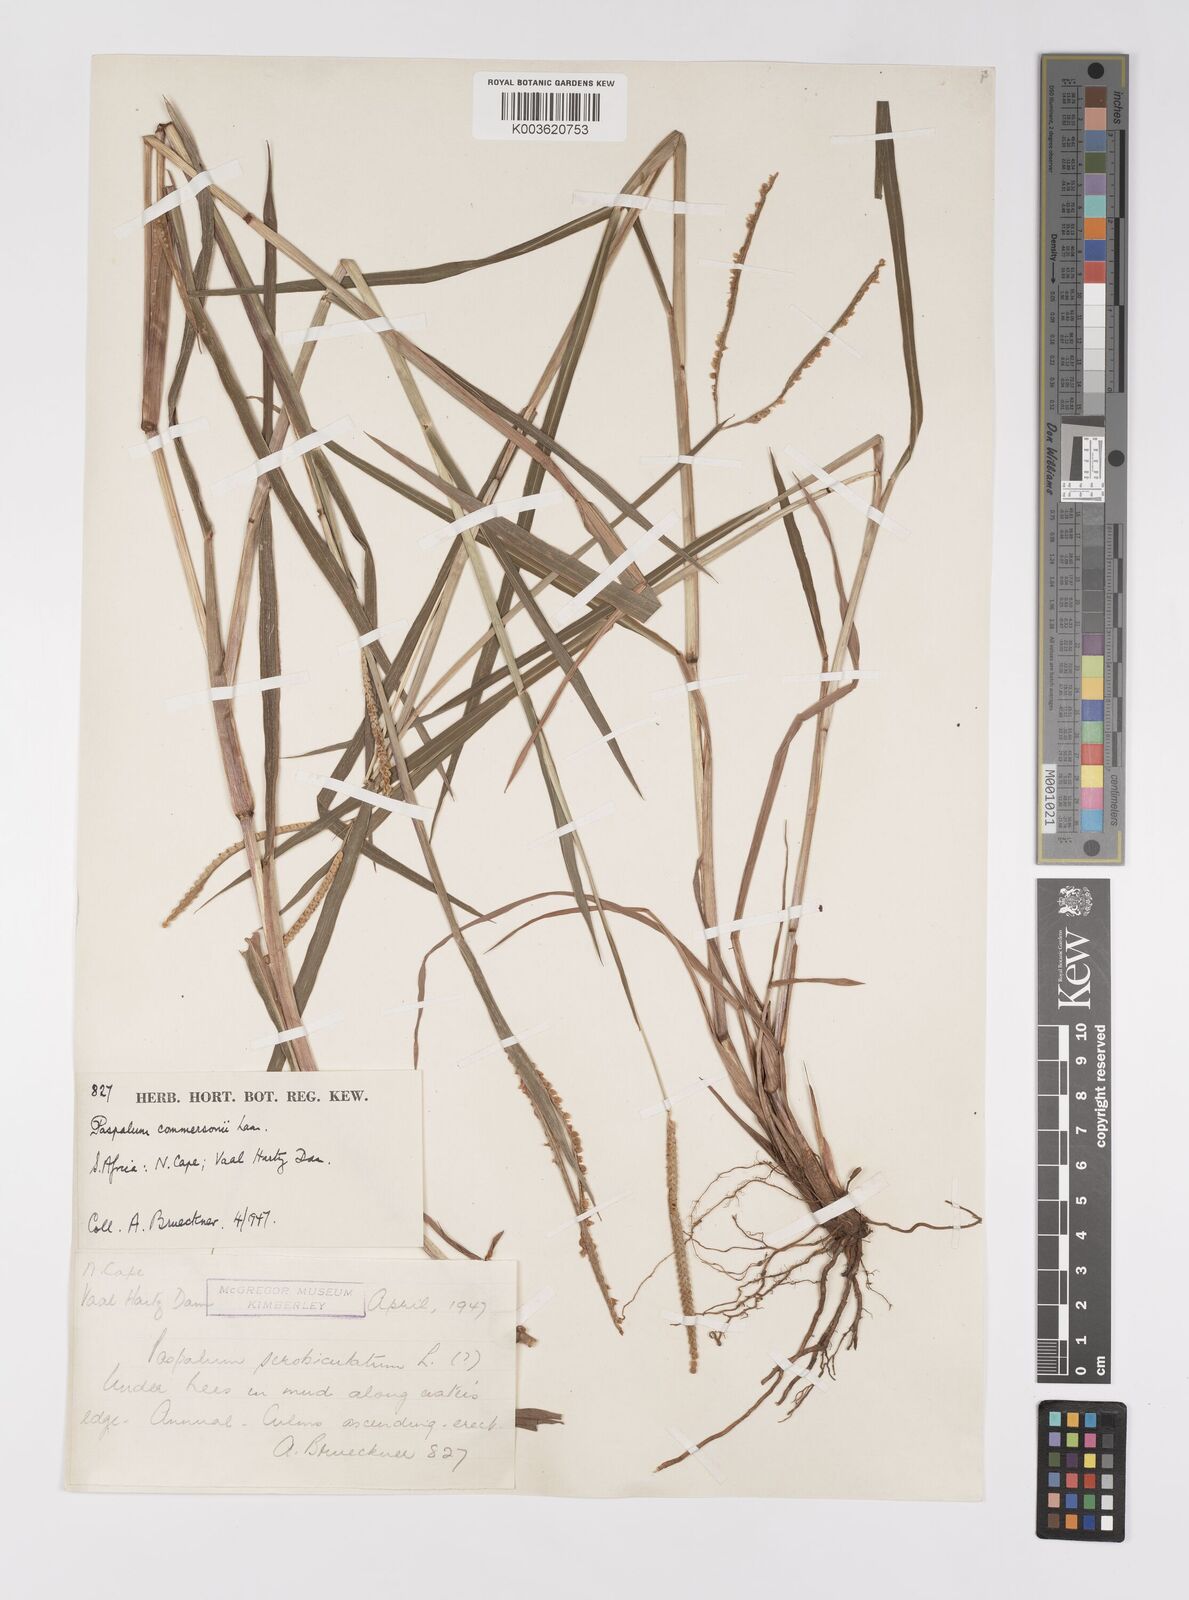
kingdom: Plantae
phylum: Tracheophyta
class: Liliopsida
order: Poales
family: Poaceae
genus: Paspalum
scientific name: Paspalum scrobiculatum
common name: Kodo millet
